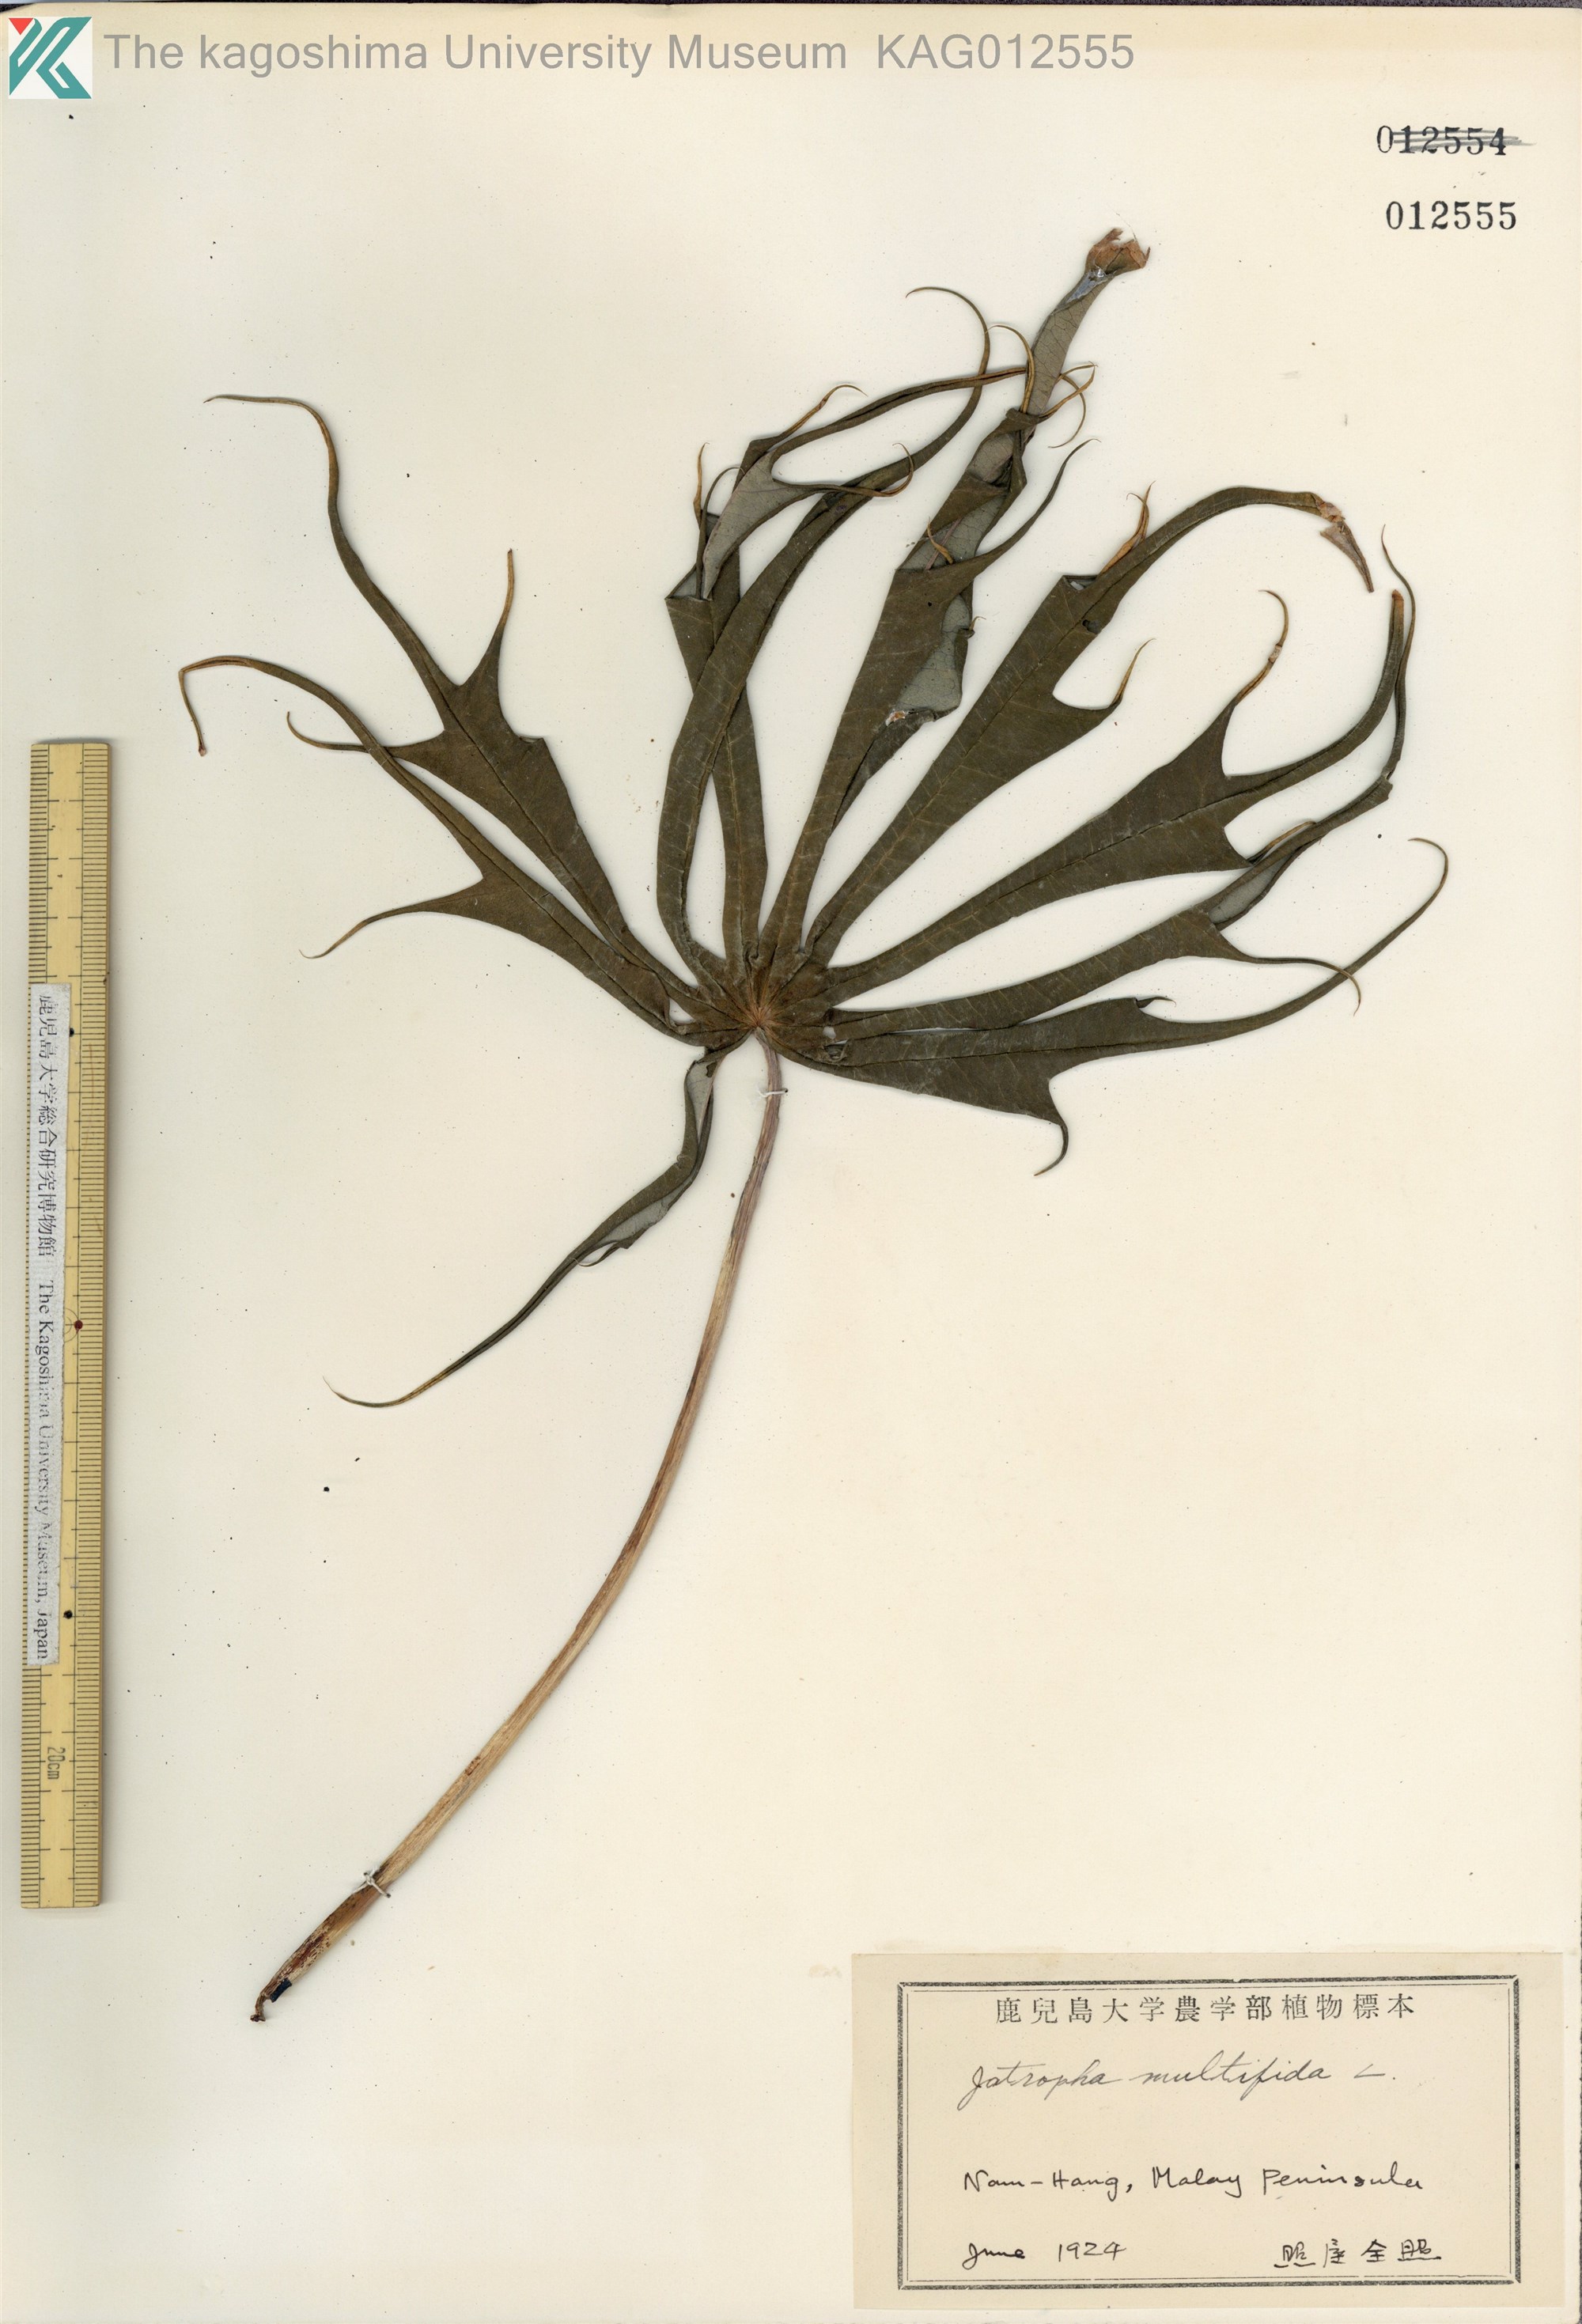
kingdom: Plantae
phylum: Tracheophyta
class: Magnoliopsida
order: Malpighiales
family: Euphorbiaceae
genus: Jatropha
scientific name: Jatropha multifida
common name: Coralbush
